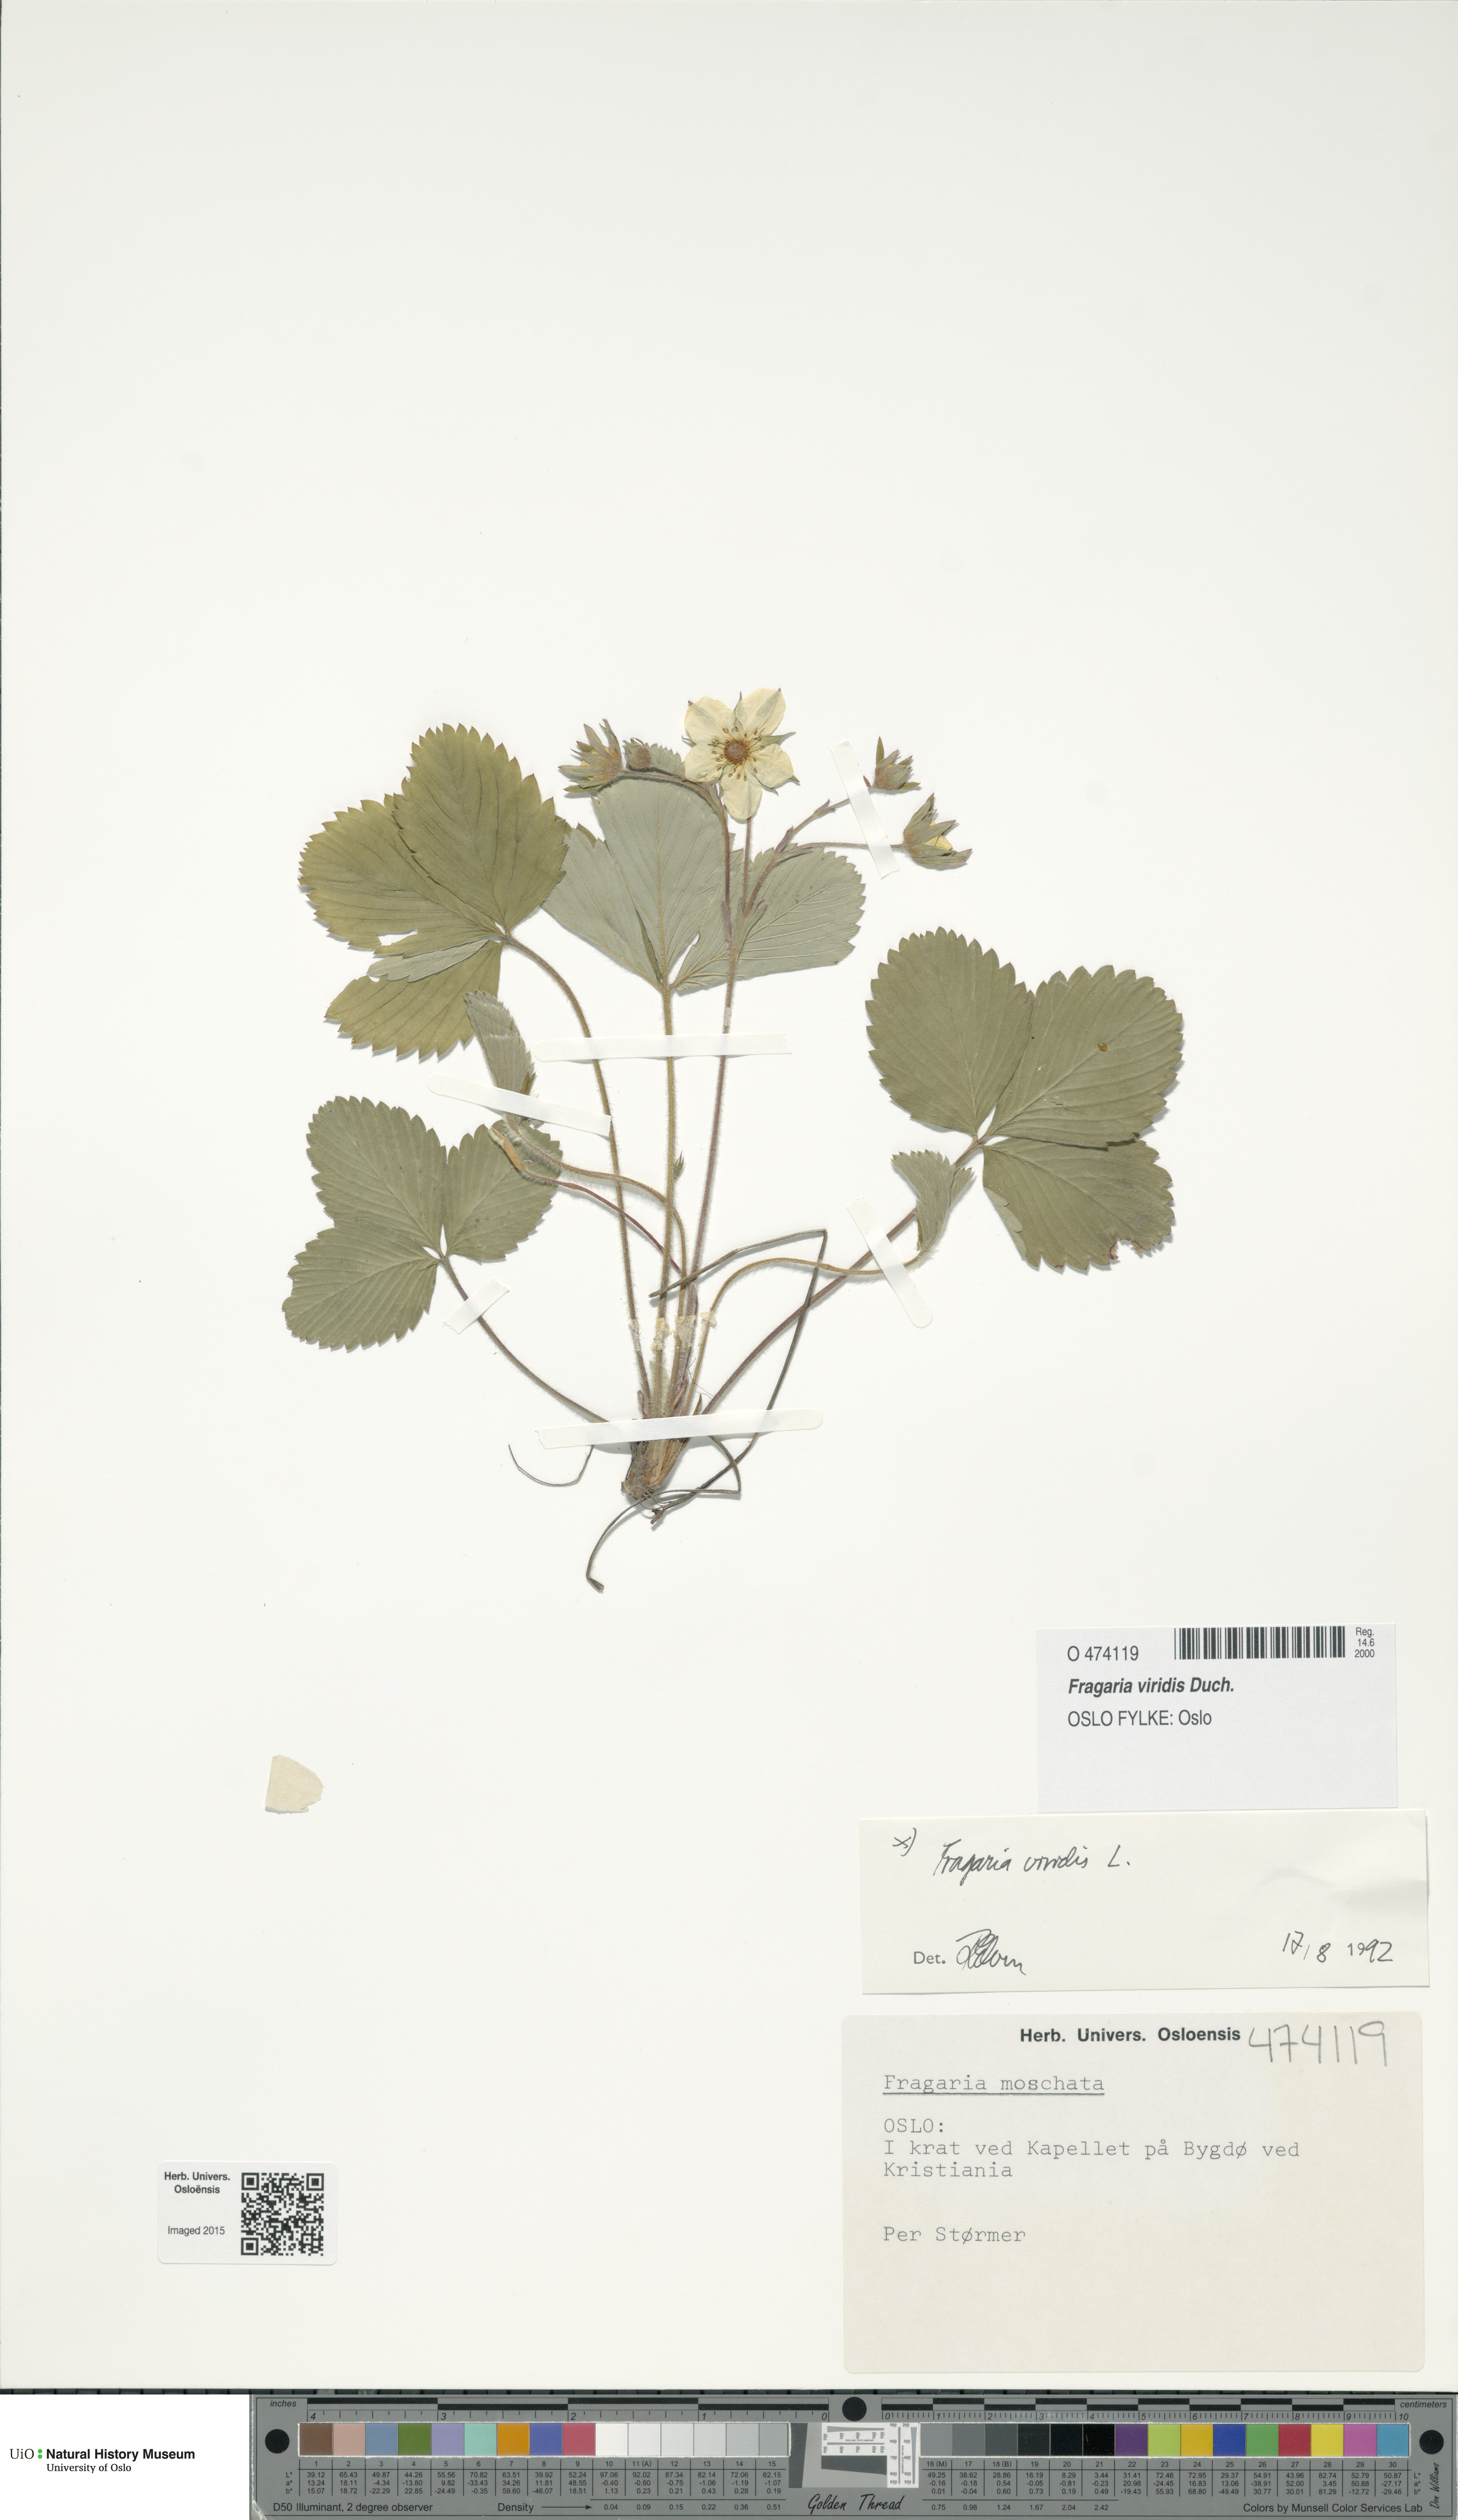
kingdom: Plantae
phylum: Tracheophyta
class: Magnoliopsida
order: Rosales
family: Rosaceae
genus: Fragaria
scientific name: Fragaria viridis
